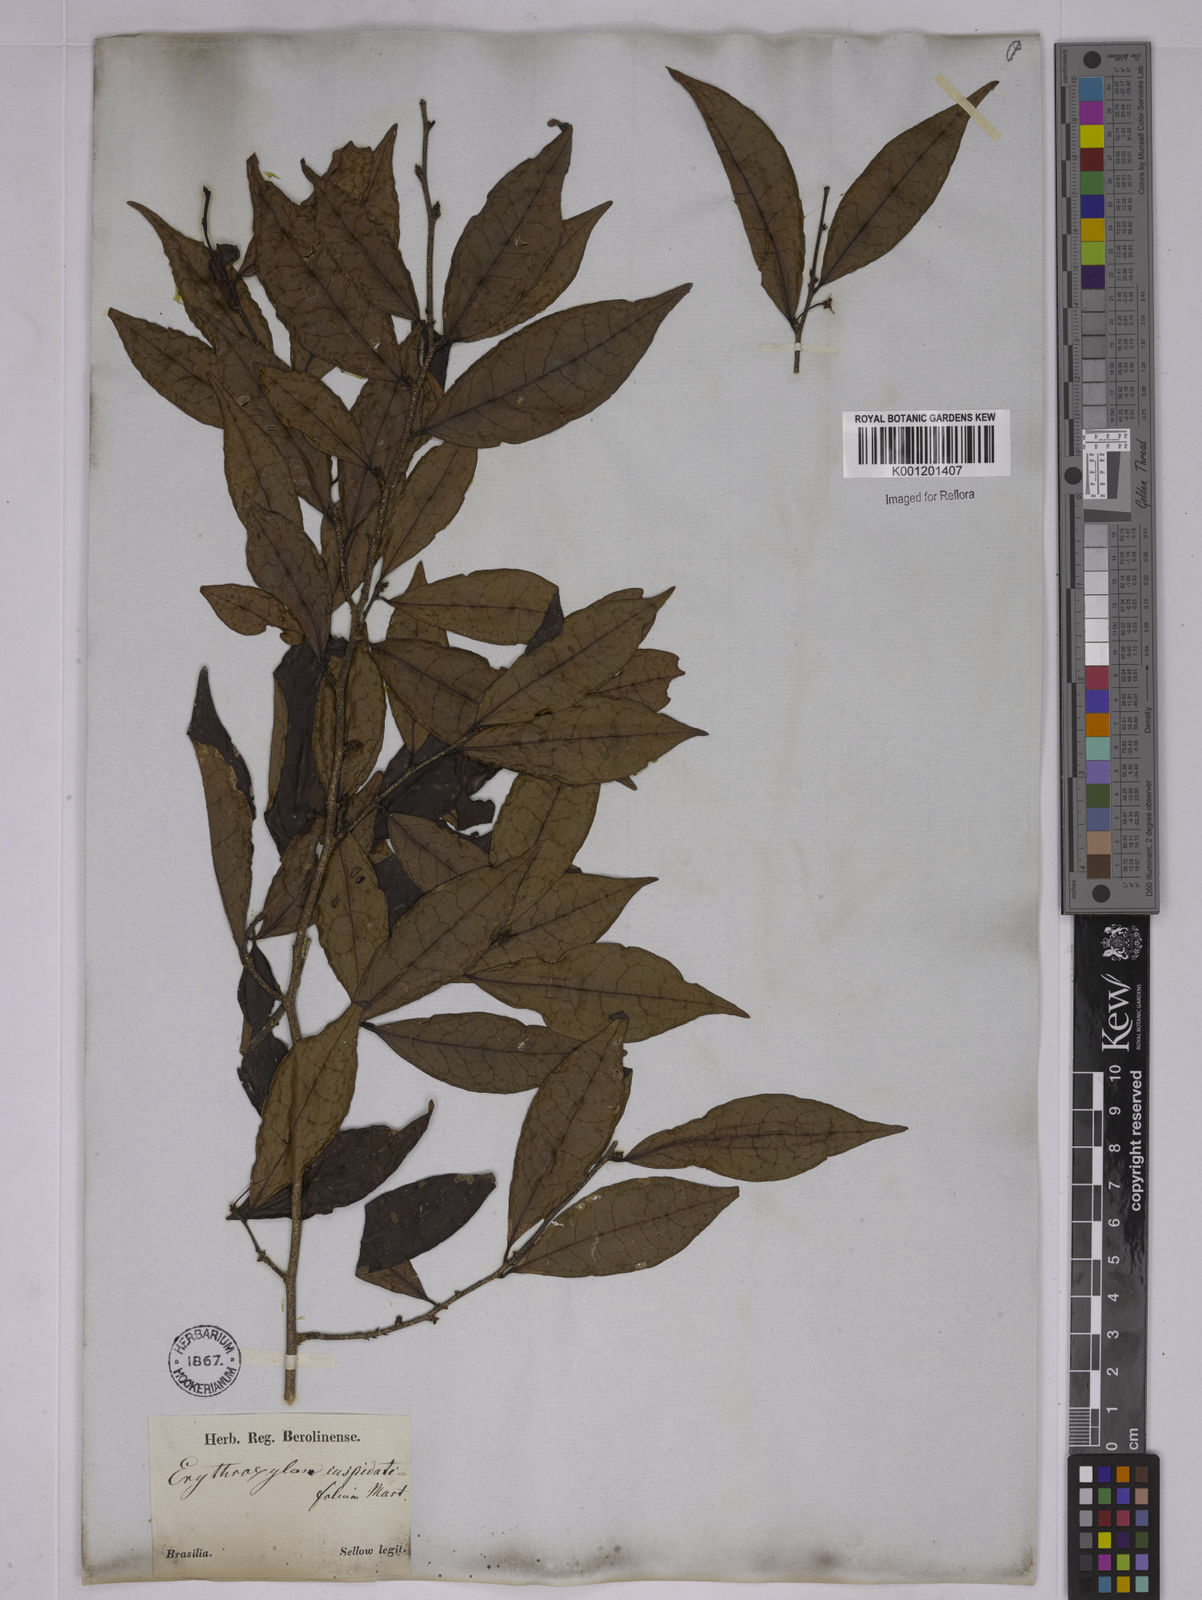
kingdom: Plantae
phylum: Tracheophyta
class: Magnoliopsida
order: Malpighiales
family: Erythroxylaceae
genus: Erythroxylum
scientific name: Erythroxylum cuspidifolium
